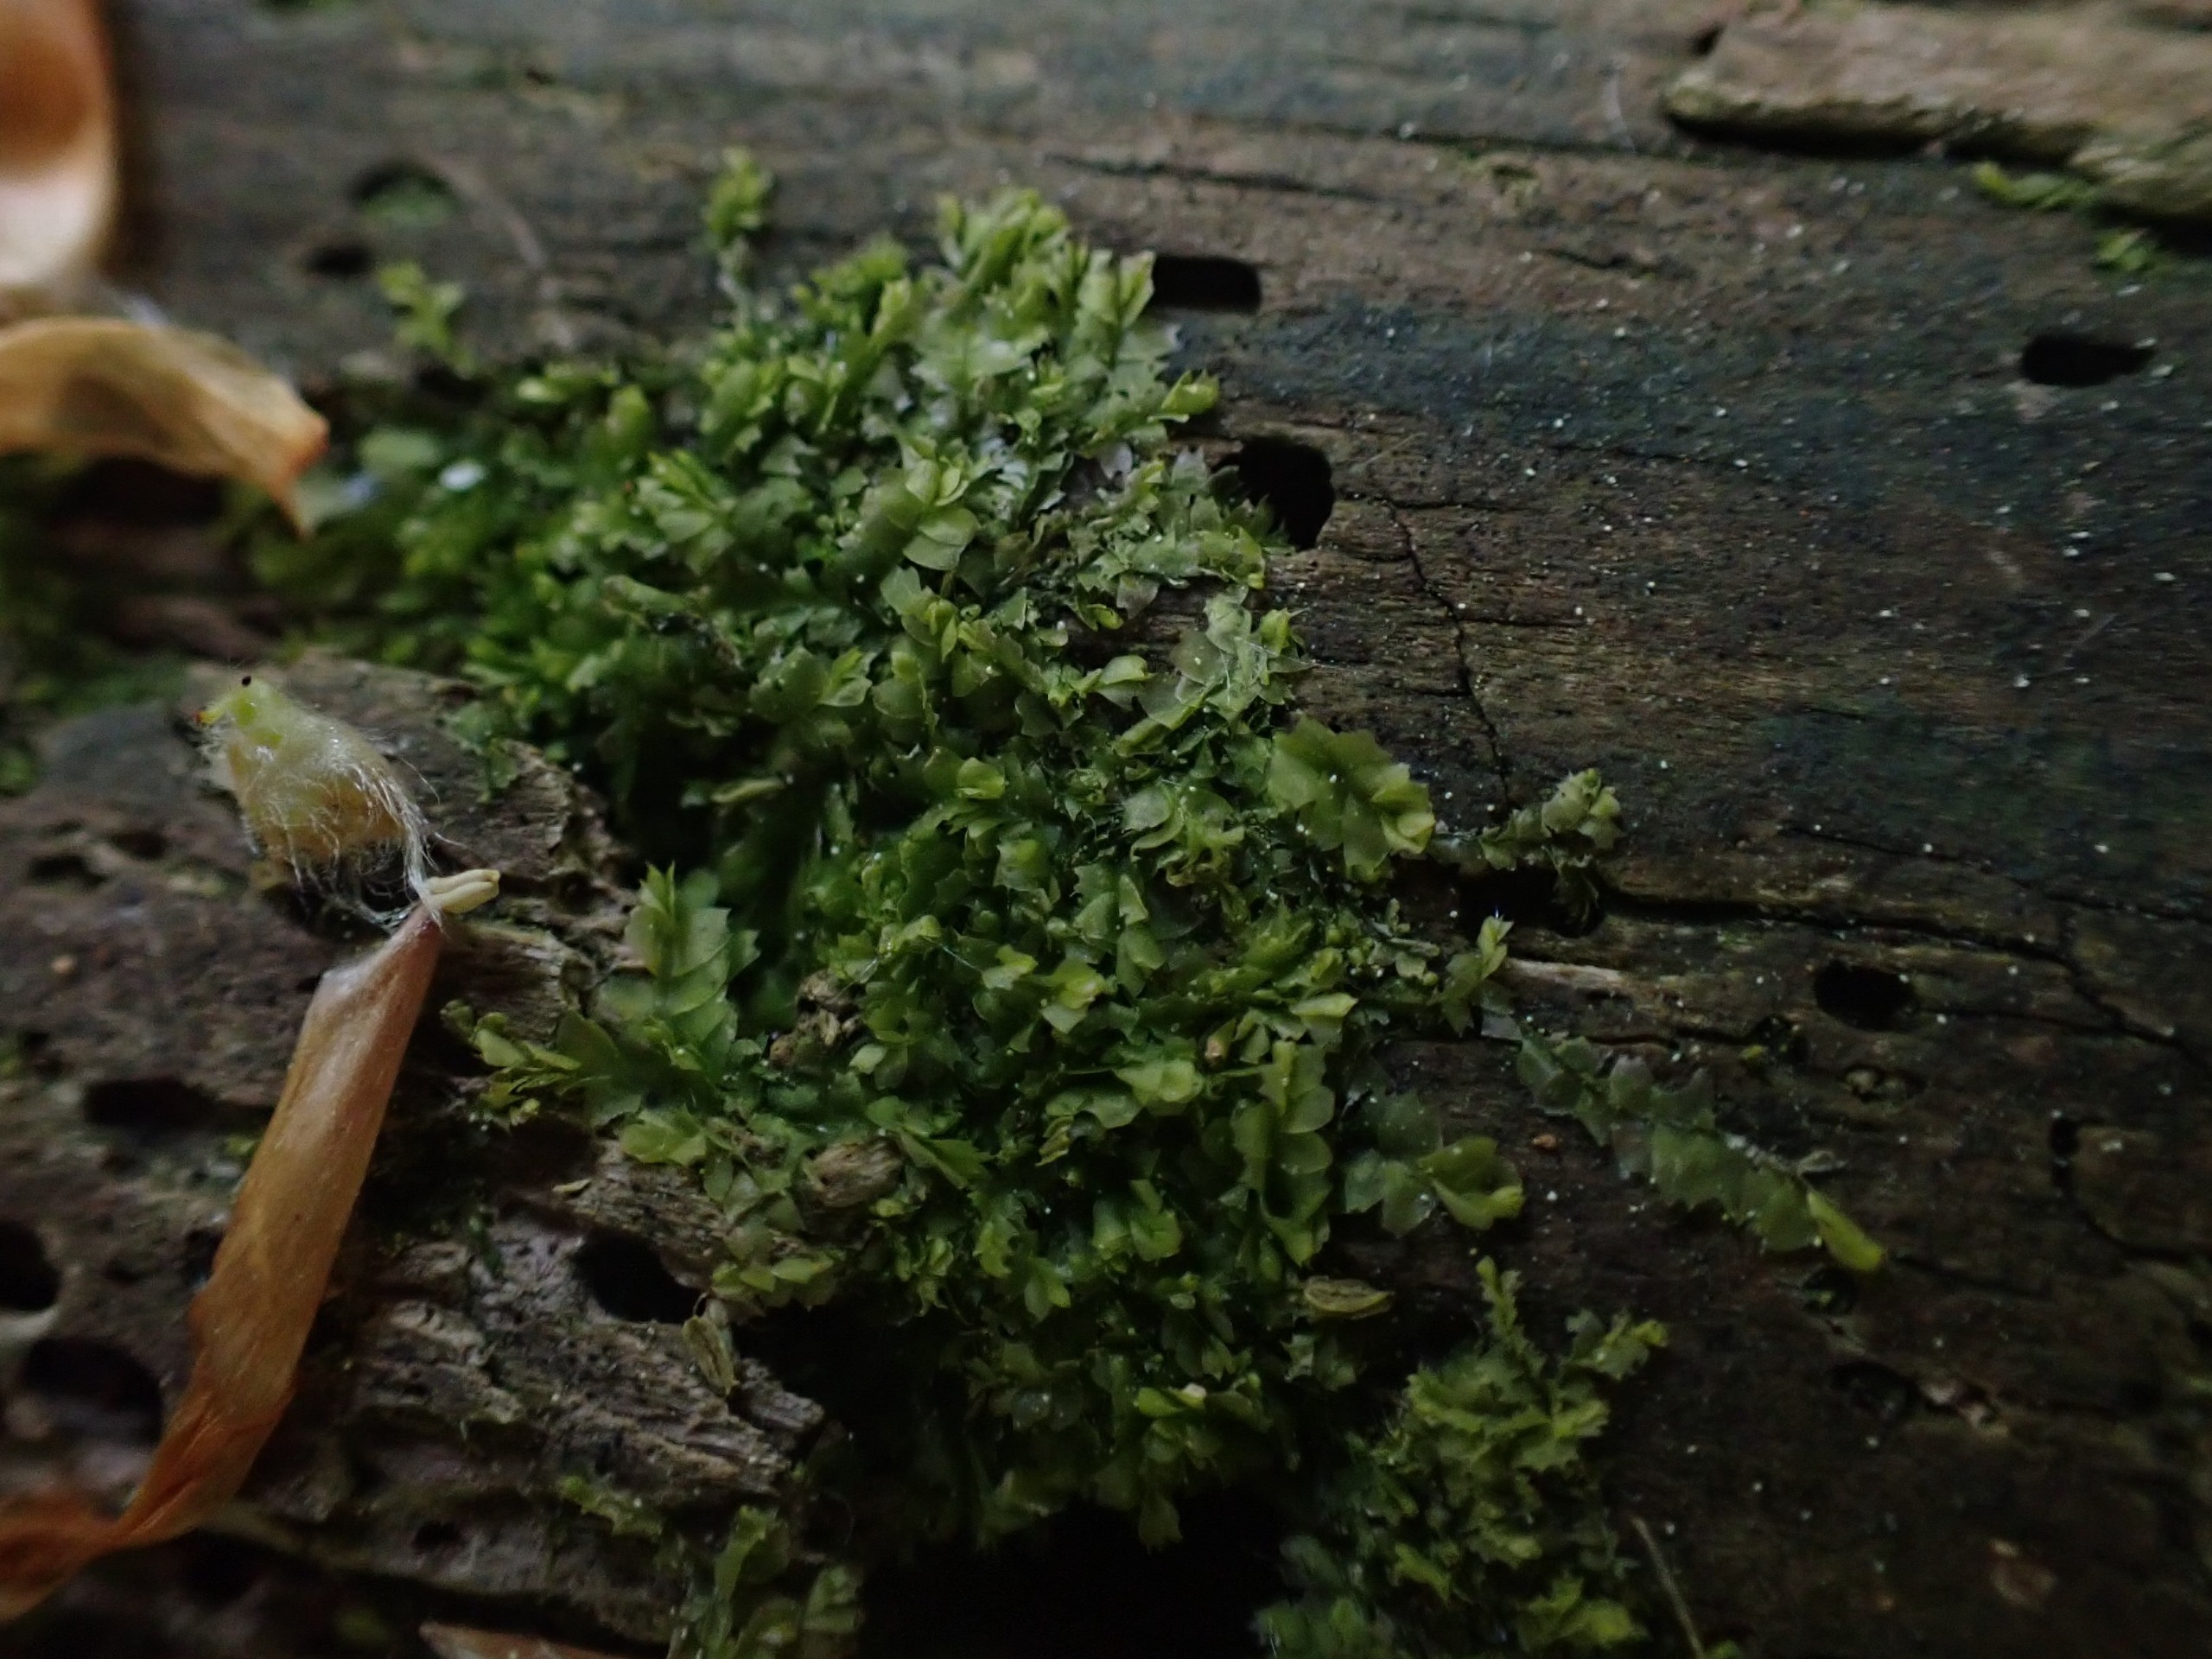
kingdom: Plantae
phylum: Marchantiophyta
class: Jungermanniopsida
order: Jungermanniales
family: Lophocoleaceae
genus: Lophocolea
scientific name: Lophocolea heterophylla
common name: Forskelligbladet kamsvøb
